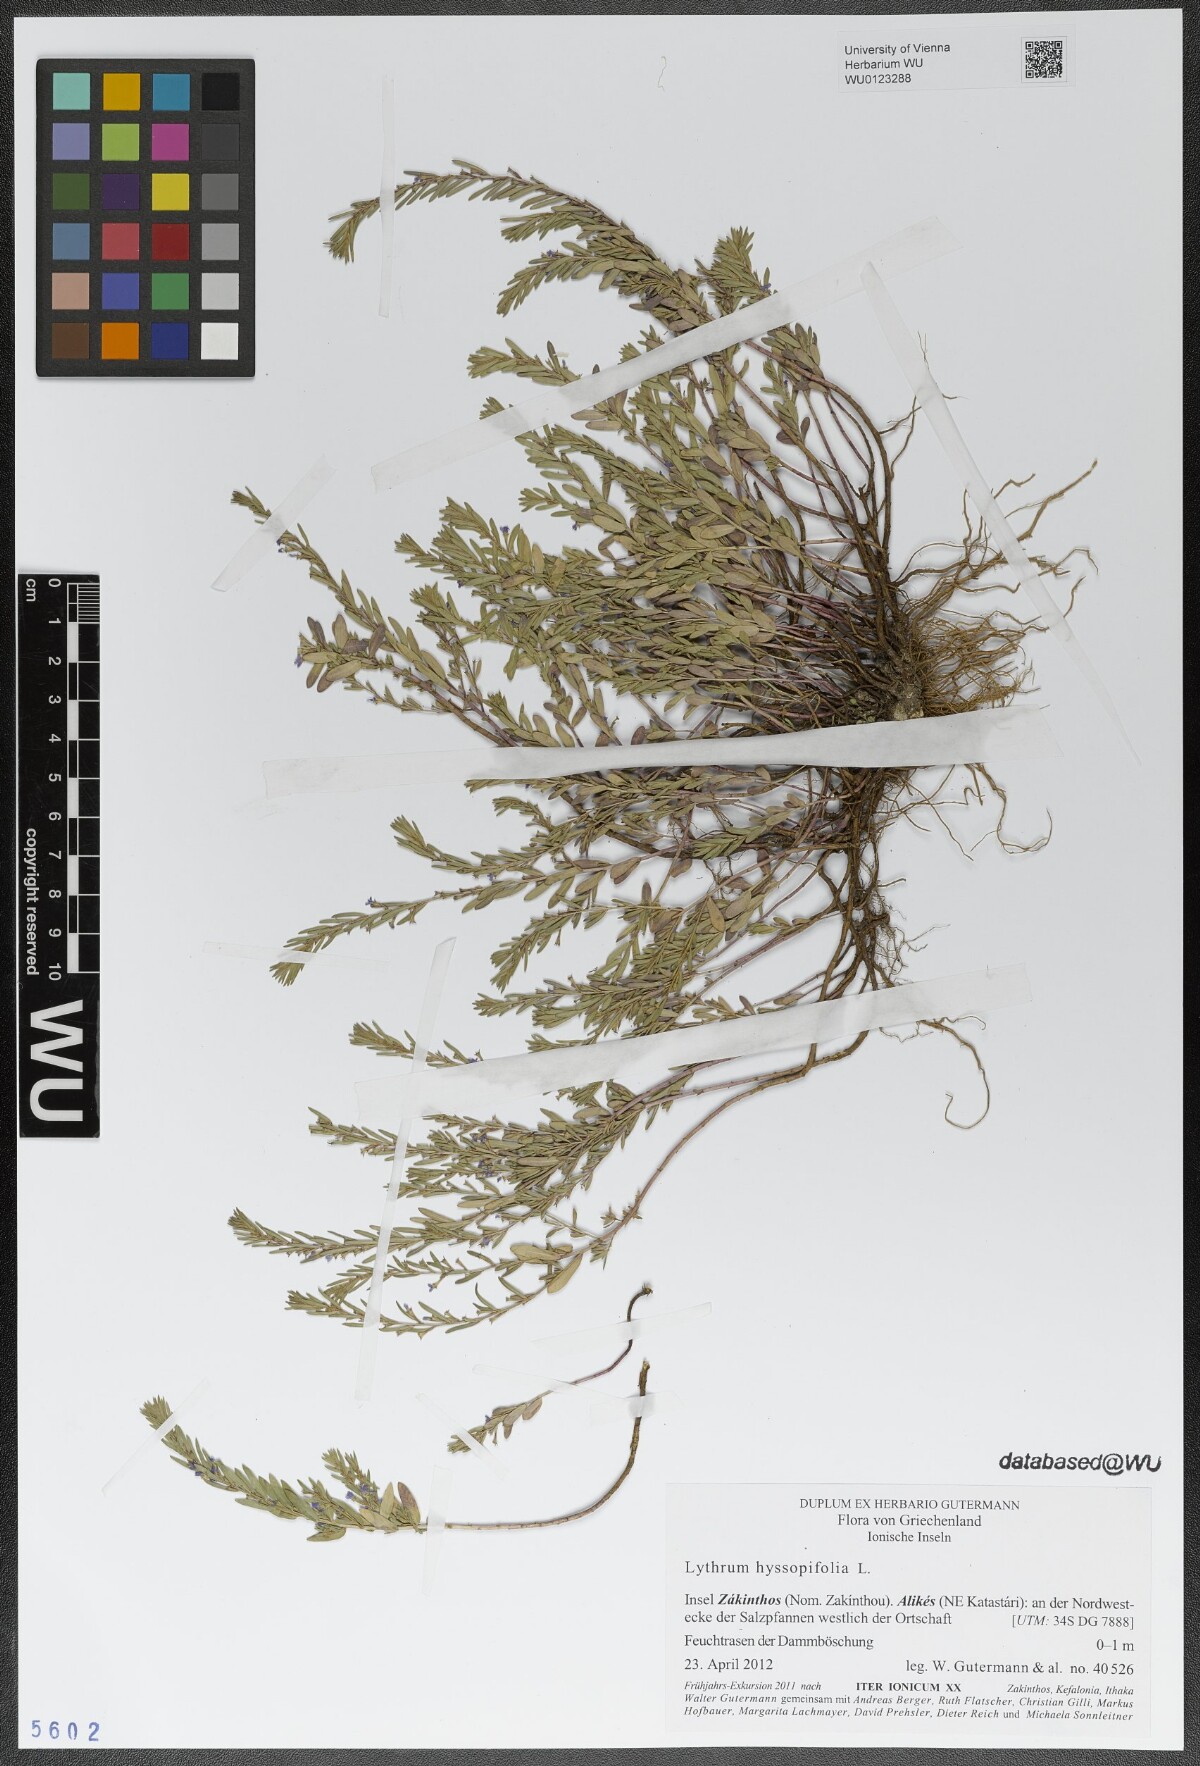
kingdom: Plantae
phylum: Tracheophyta
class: Magnoliopsida
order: Myrtales
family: Lythraceae
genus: Lythrum
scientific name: Lythrum hyssopifolia
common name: Grass-poly
